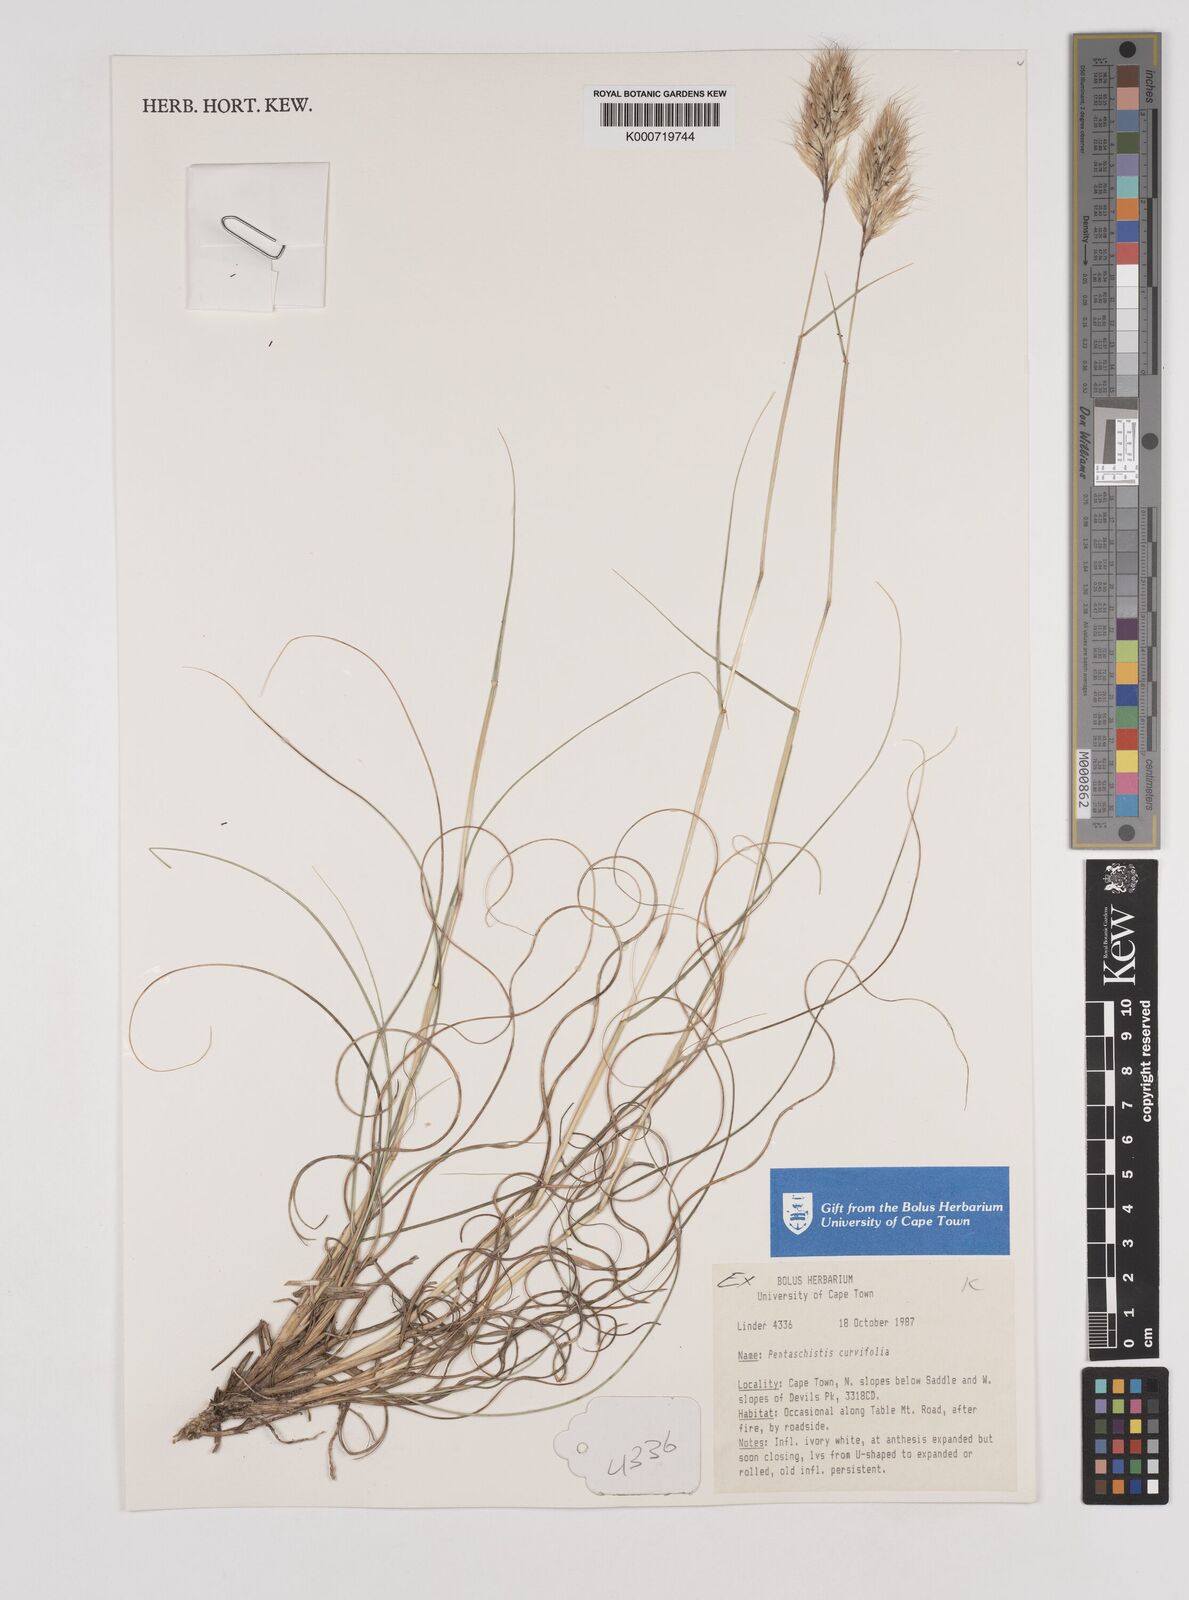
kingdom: Plantae
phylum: Tracheophyta
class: Liliopsida
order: Poales
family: Poaceae
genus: Pentameris
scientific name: Pentameris curvifolia
